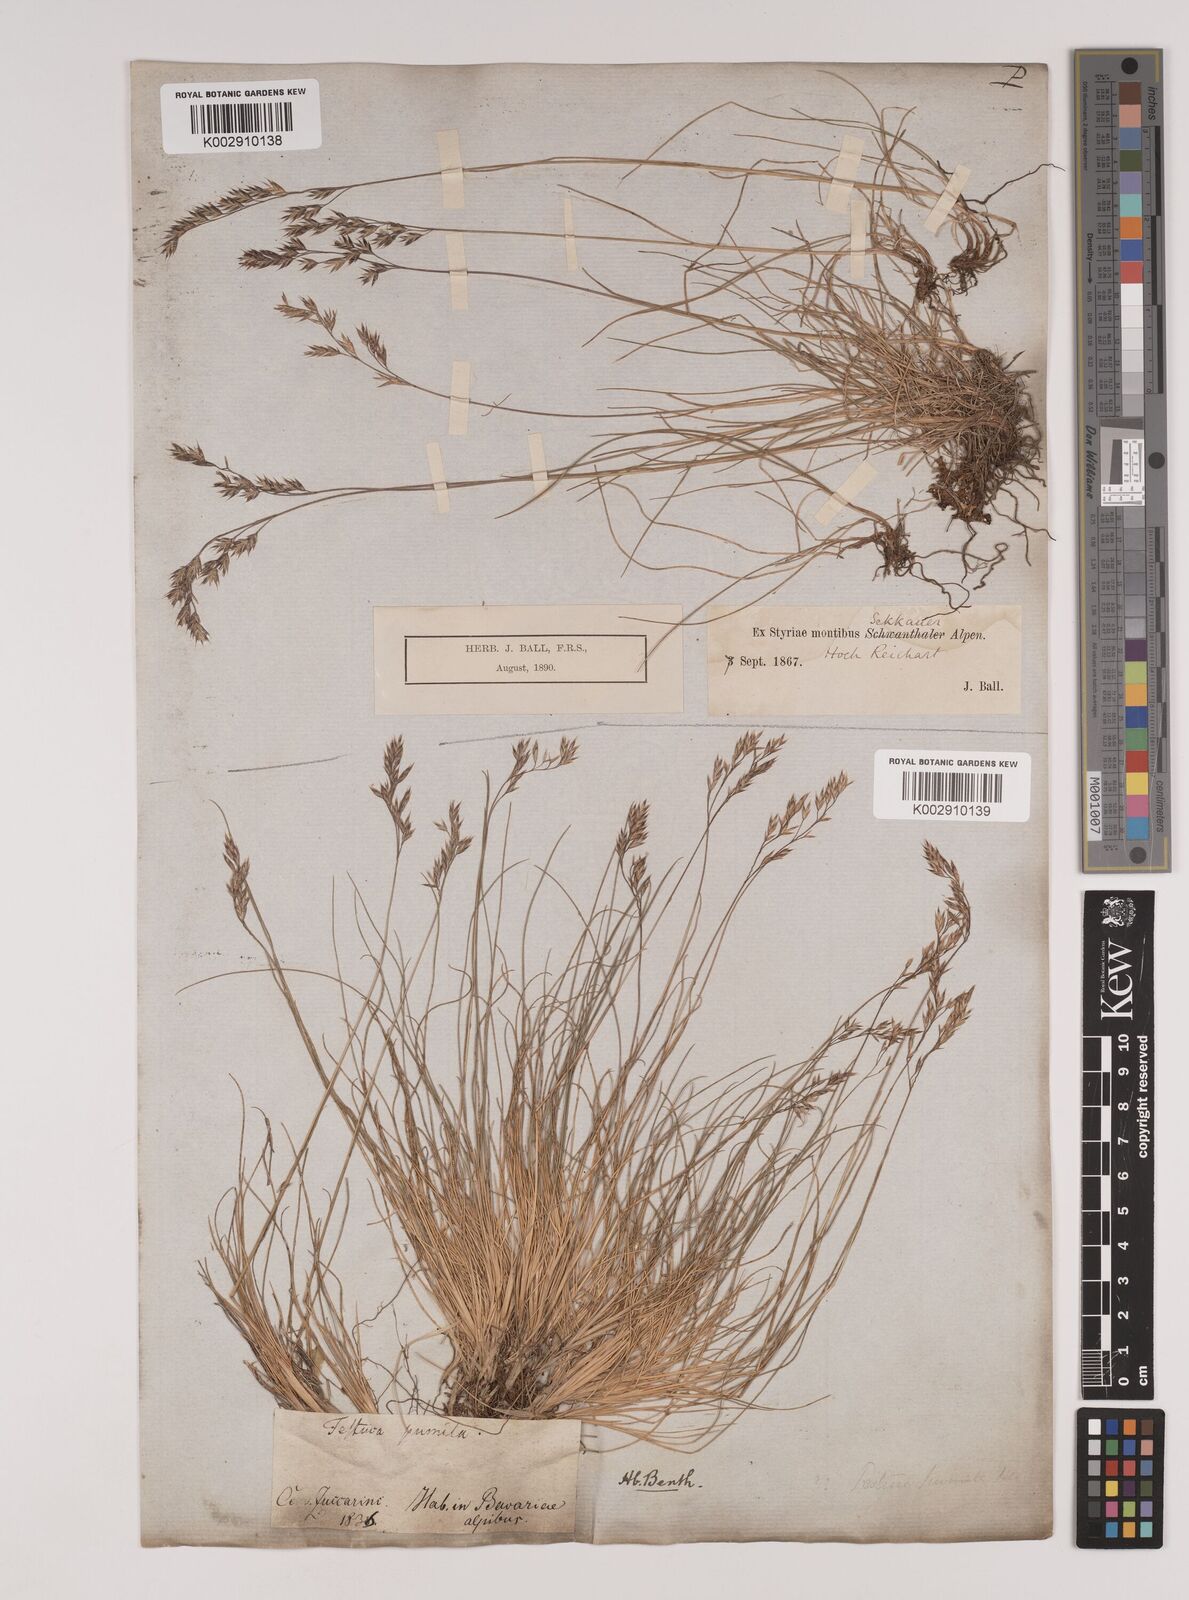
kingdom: Plantae
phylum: Tracheophyta
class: Liliopsida
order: Poales
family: Poaceae
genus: Festuca
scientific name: Festuca
